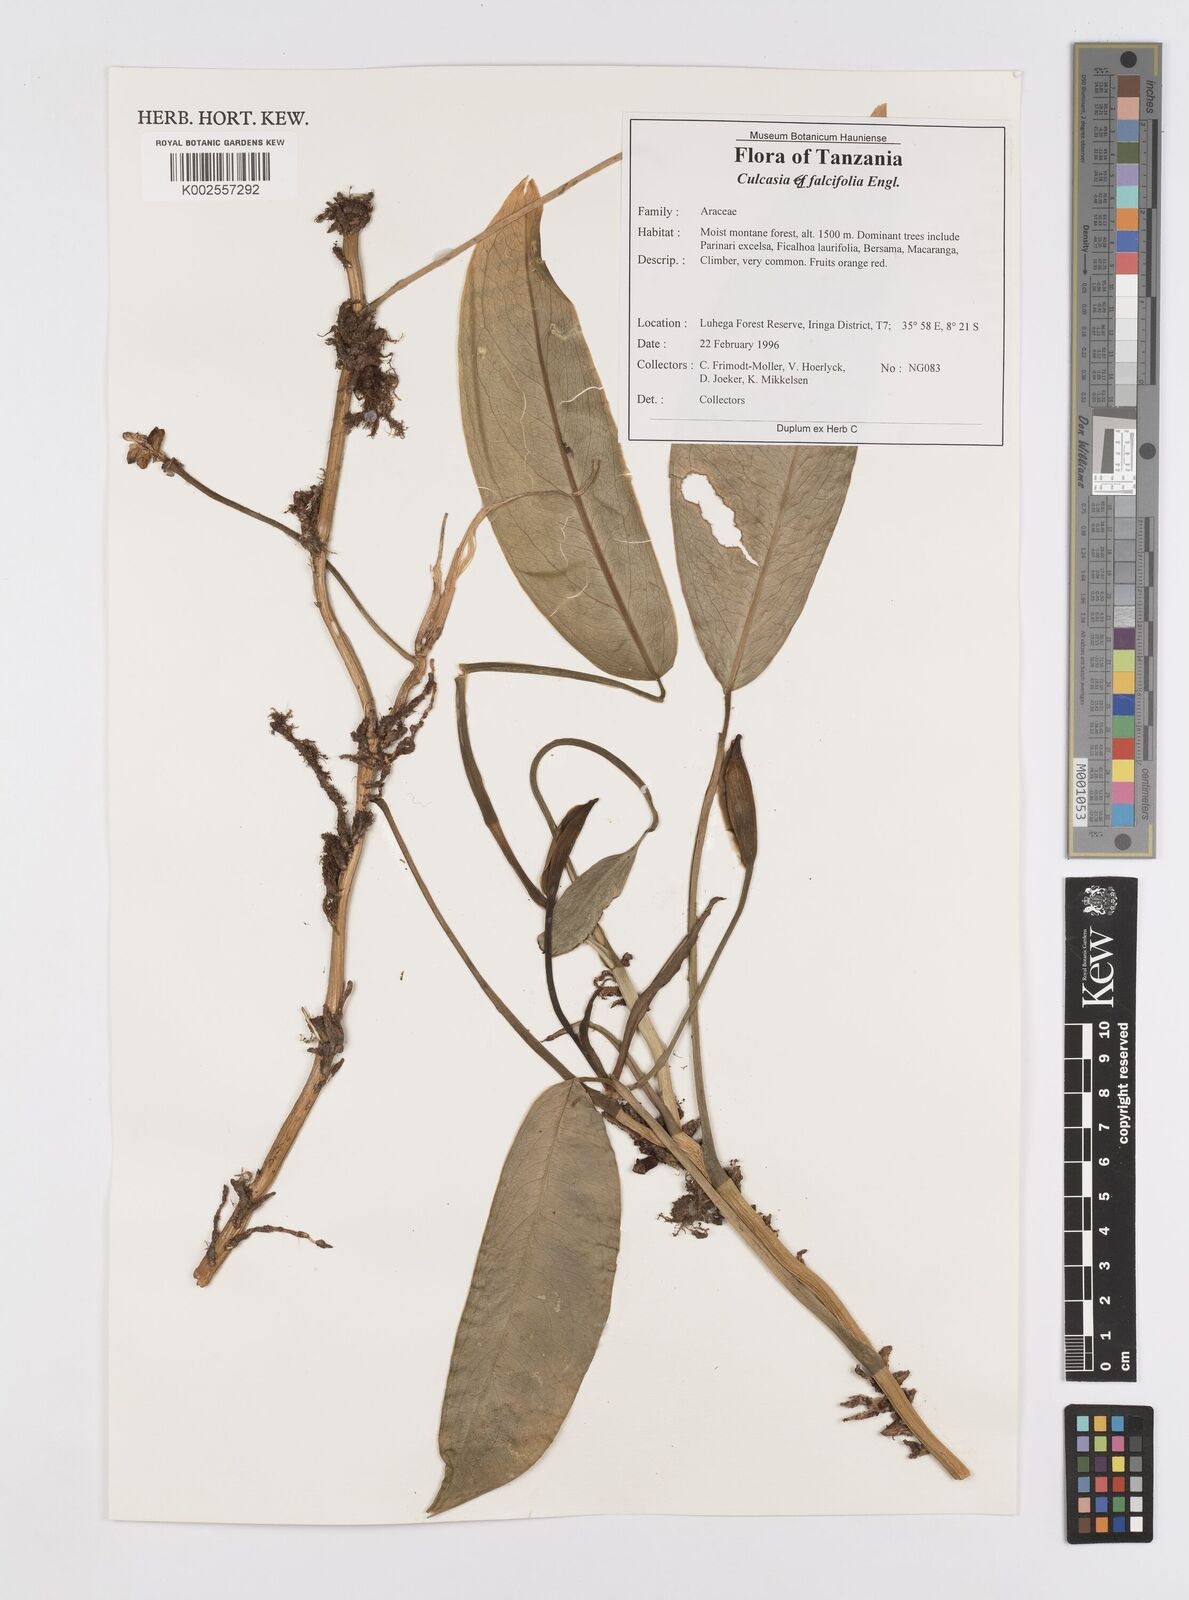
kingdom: Plantae
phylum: Tracheophyta
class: Liliopsida
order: Alismatales
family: Araceae
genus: Culcasia
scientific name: Culcasia falcifolia
